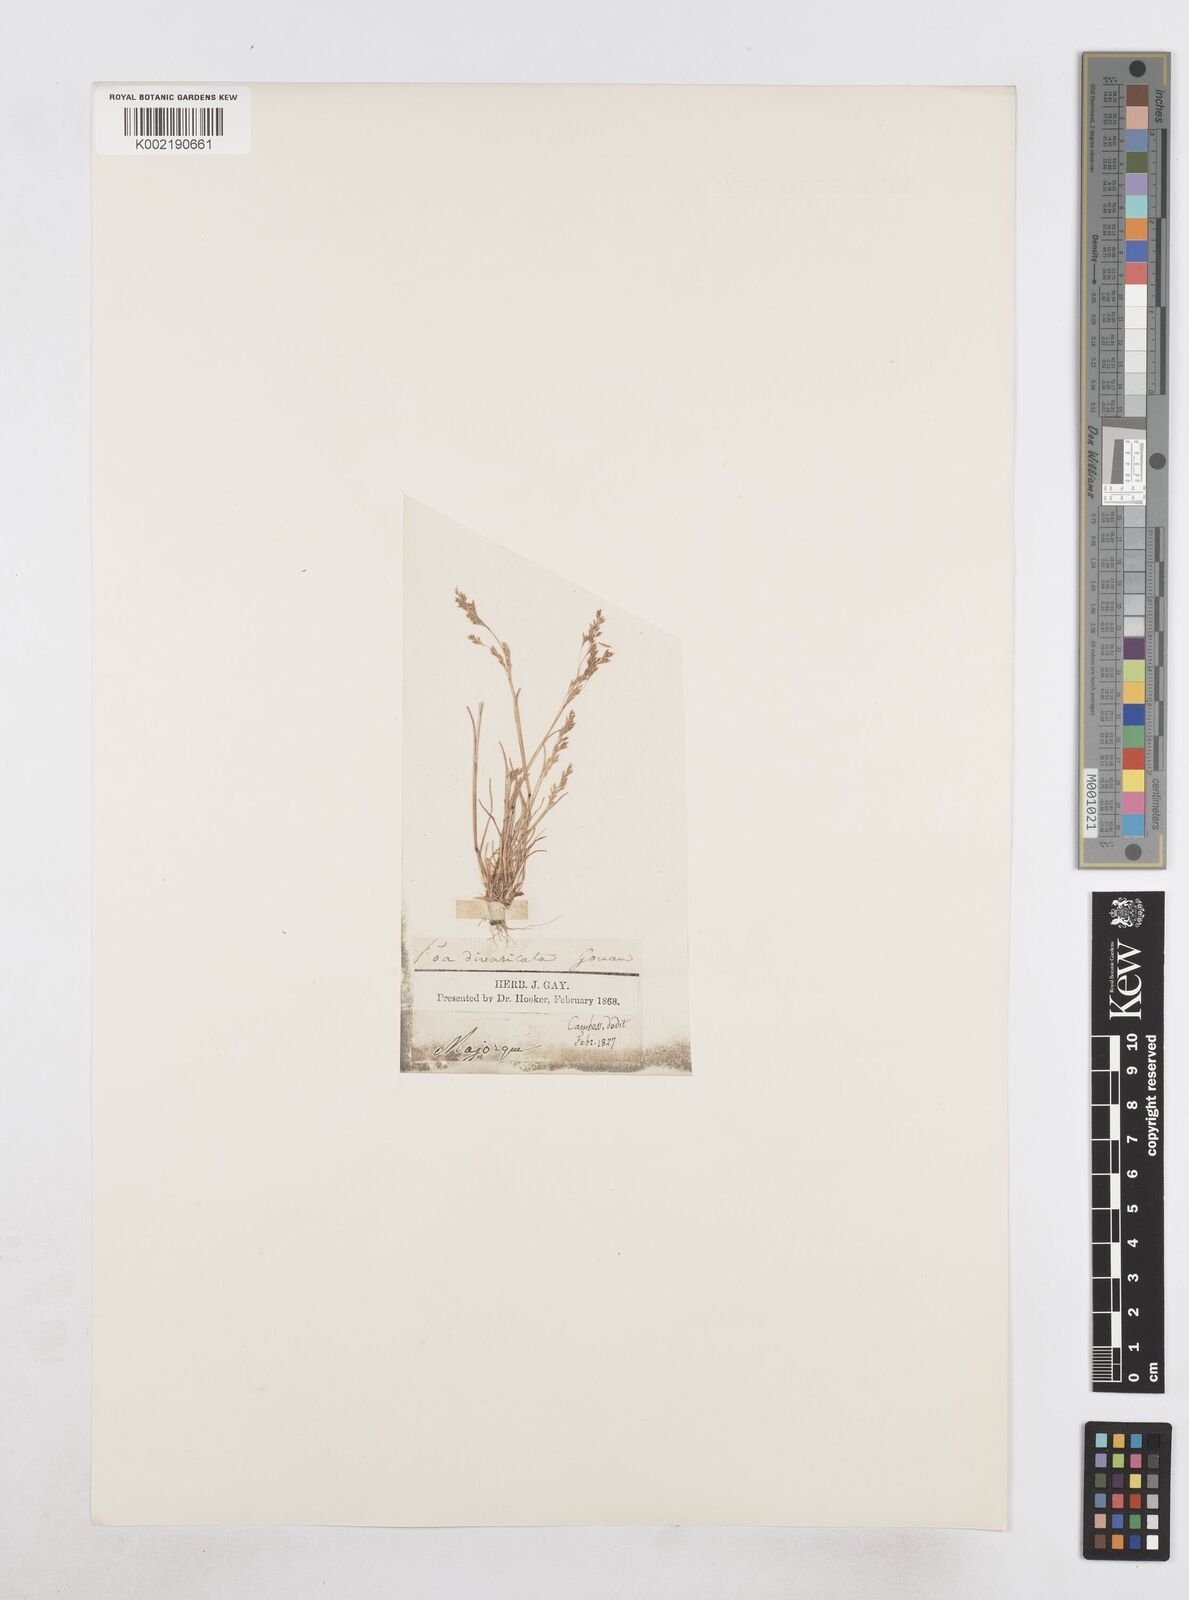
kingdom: Plantae
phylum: Tracheophyta
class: Liliopsida
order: Poales
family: Poaceae
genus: Sphenopus
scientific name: Sphenopus divaricatus
